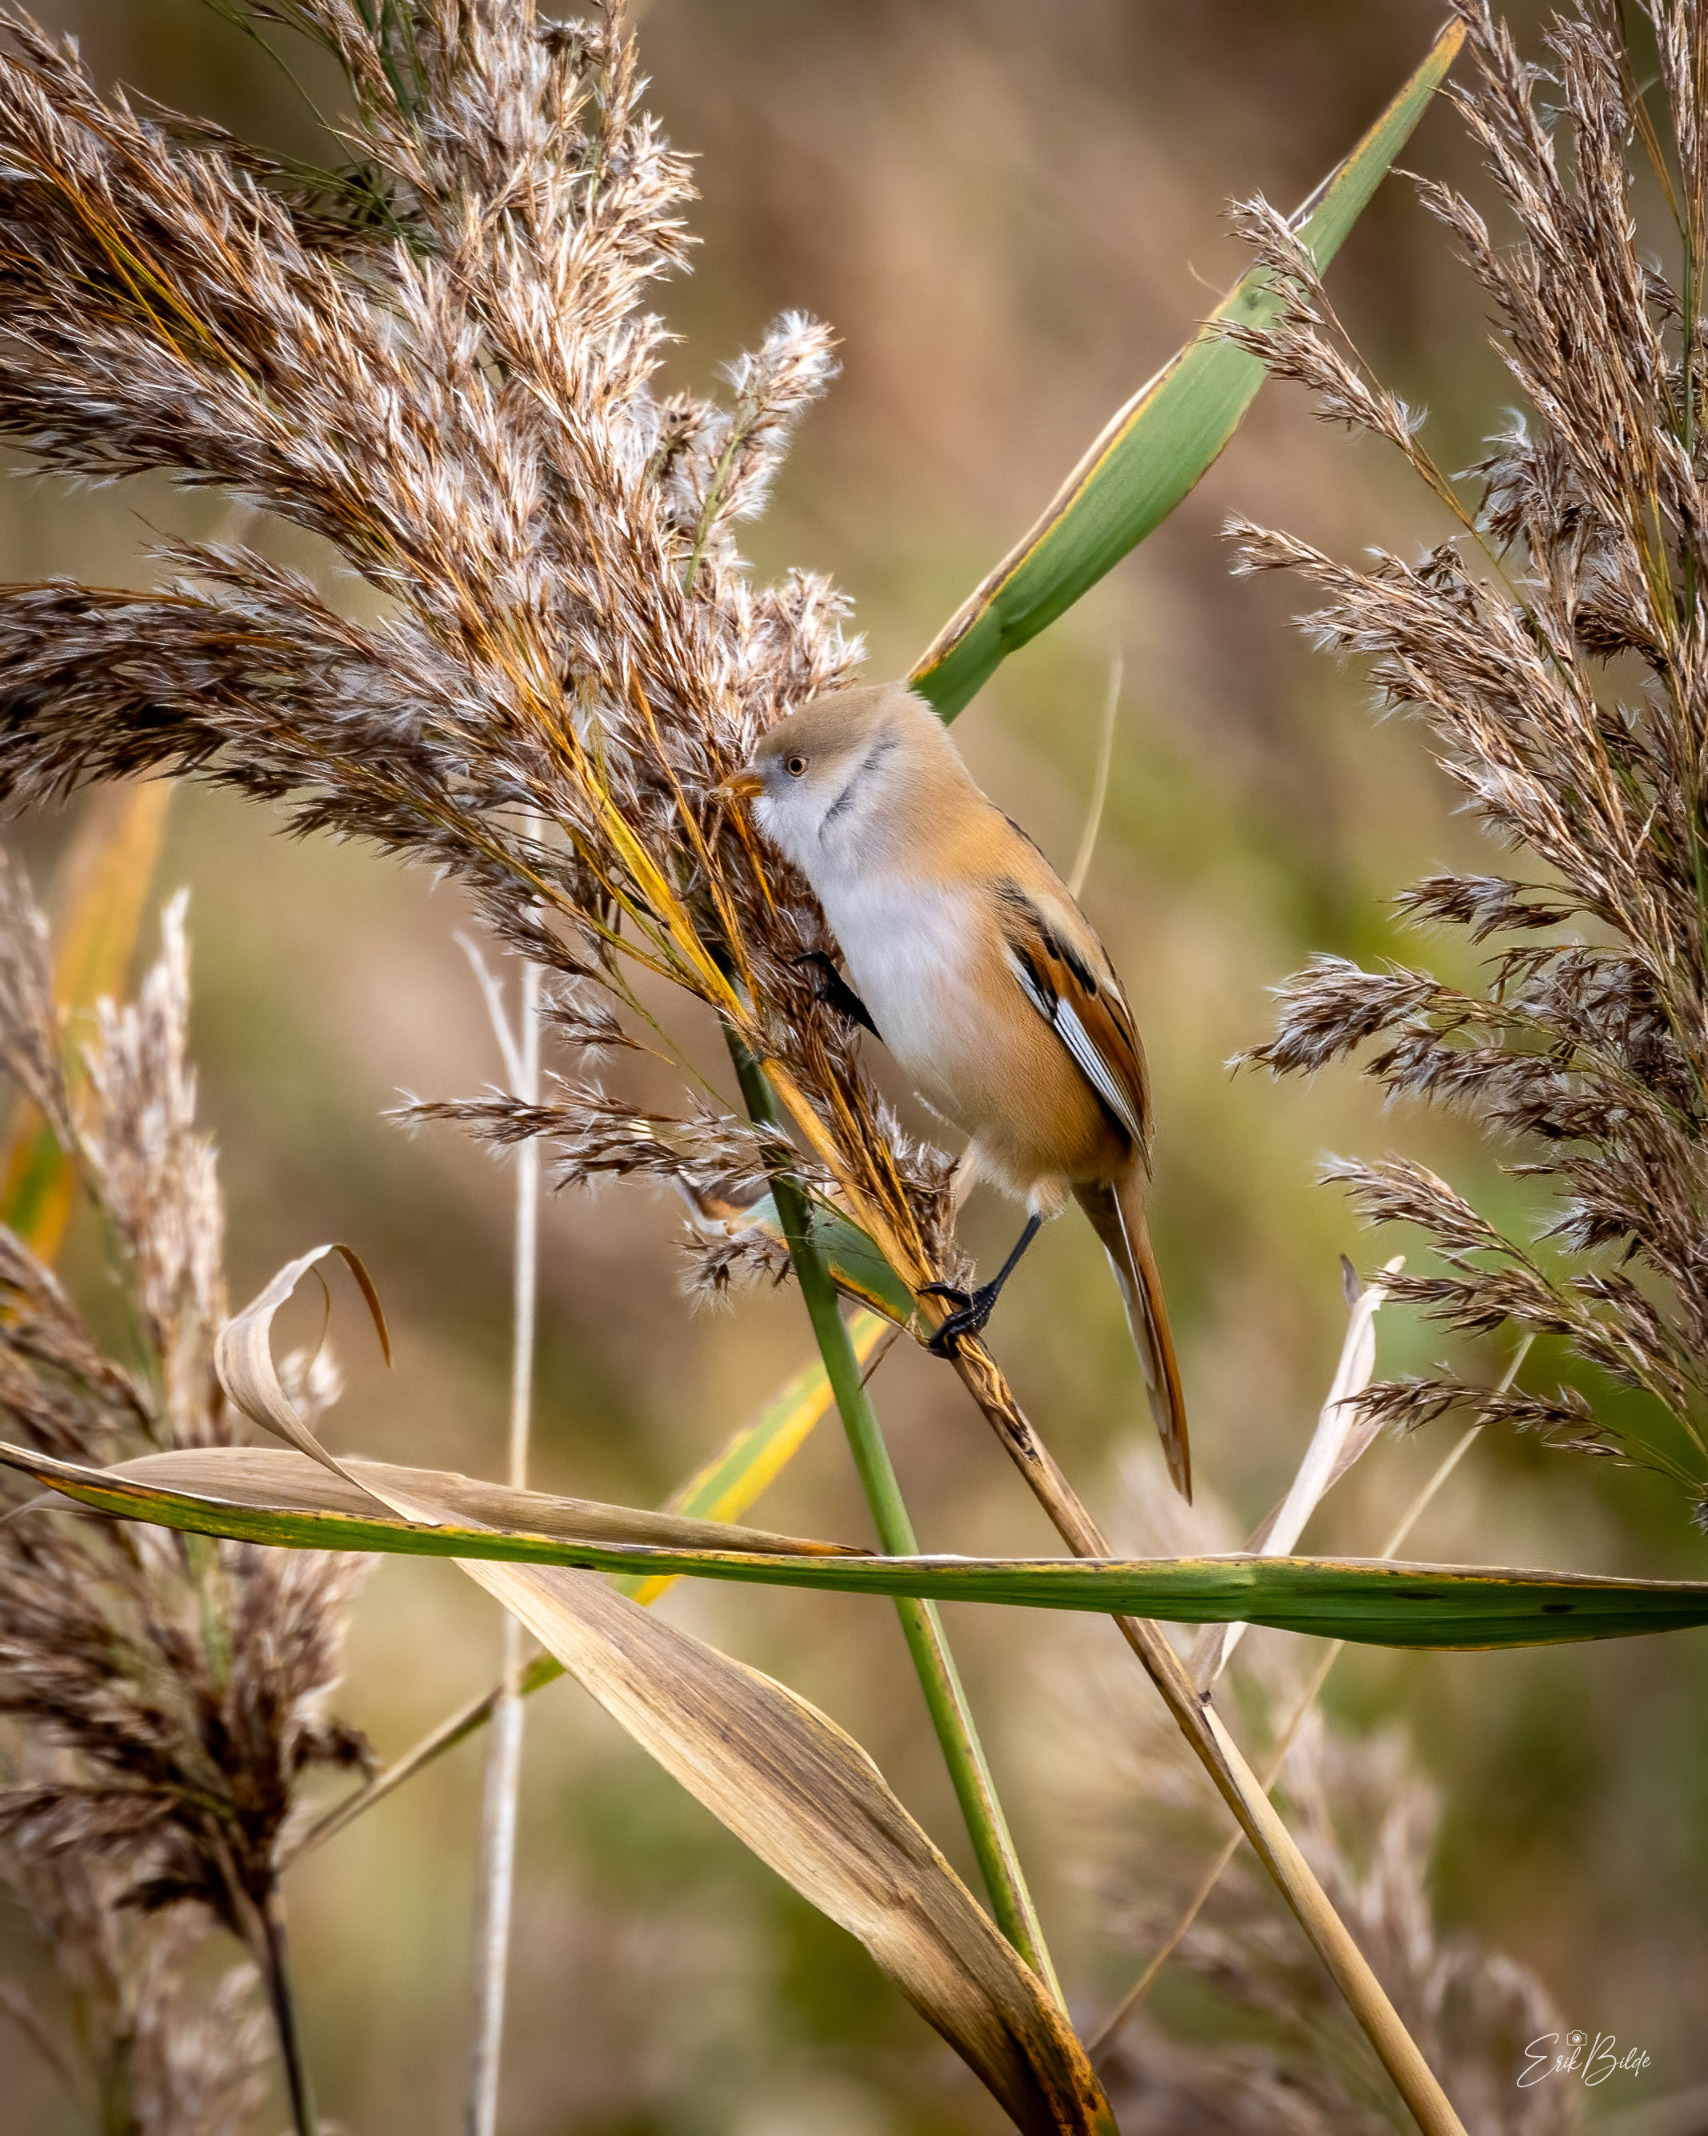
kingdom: Animalia
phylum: Chordata
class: Aves
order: Passeriformes
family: Panuridae
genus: Panurus
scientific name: Panurus biarmicus
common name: Skægmejse
